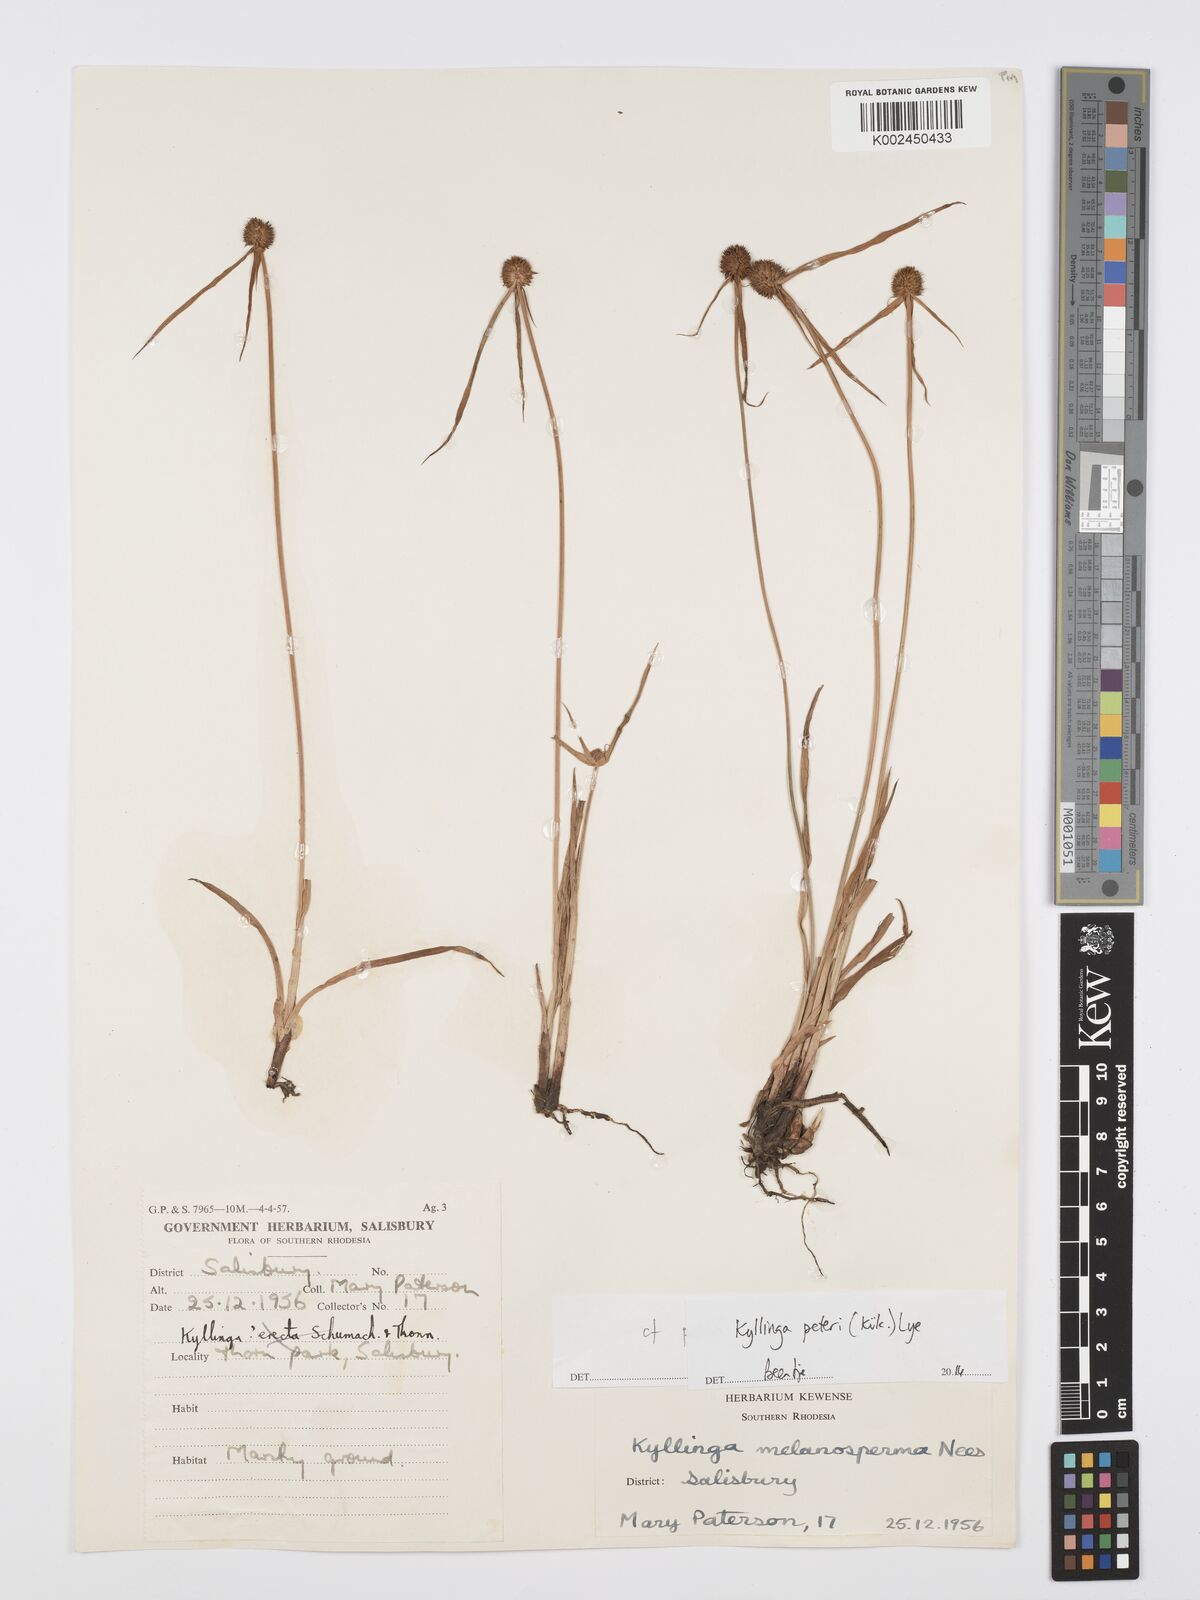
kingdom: Plantae
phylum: Tracheophyta
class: Liliopsida
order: Poales
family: Cyperaceae
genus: Cyperus
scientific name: Cyperus peteri
